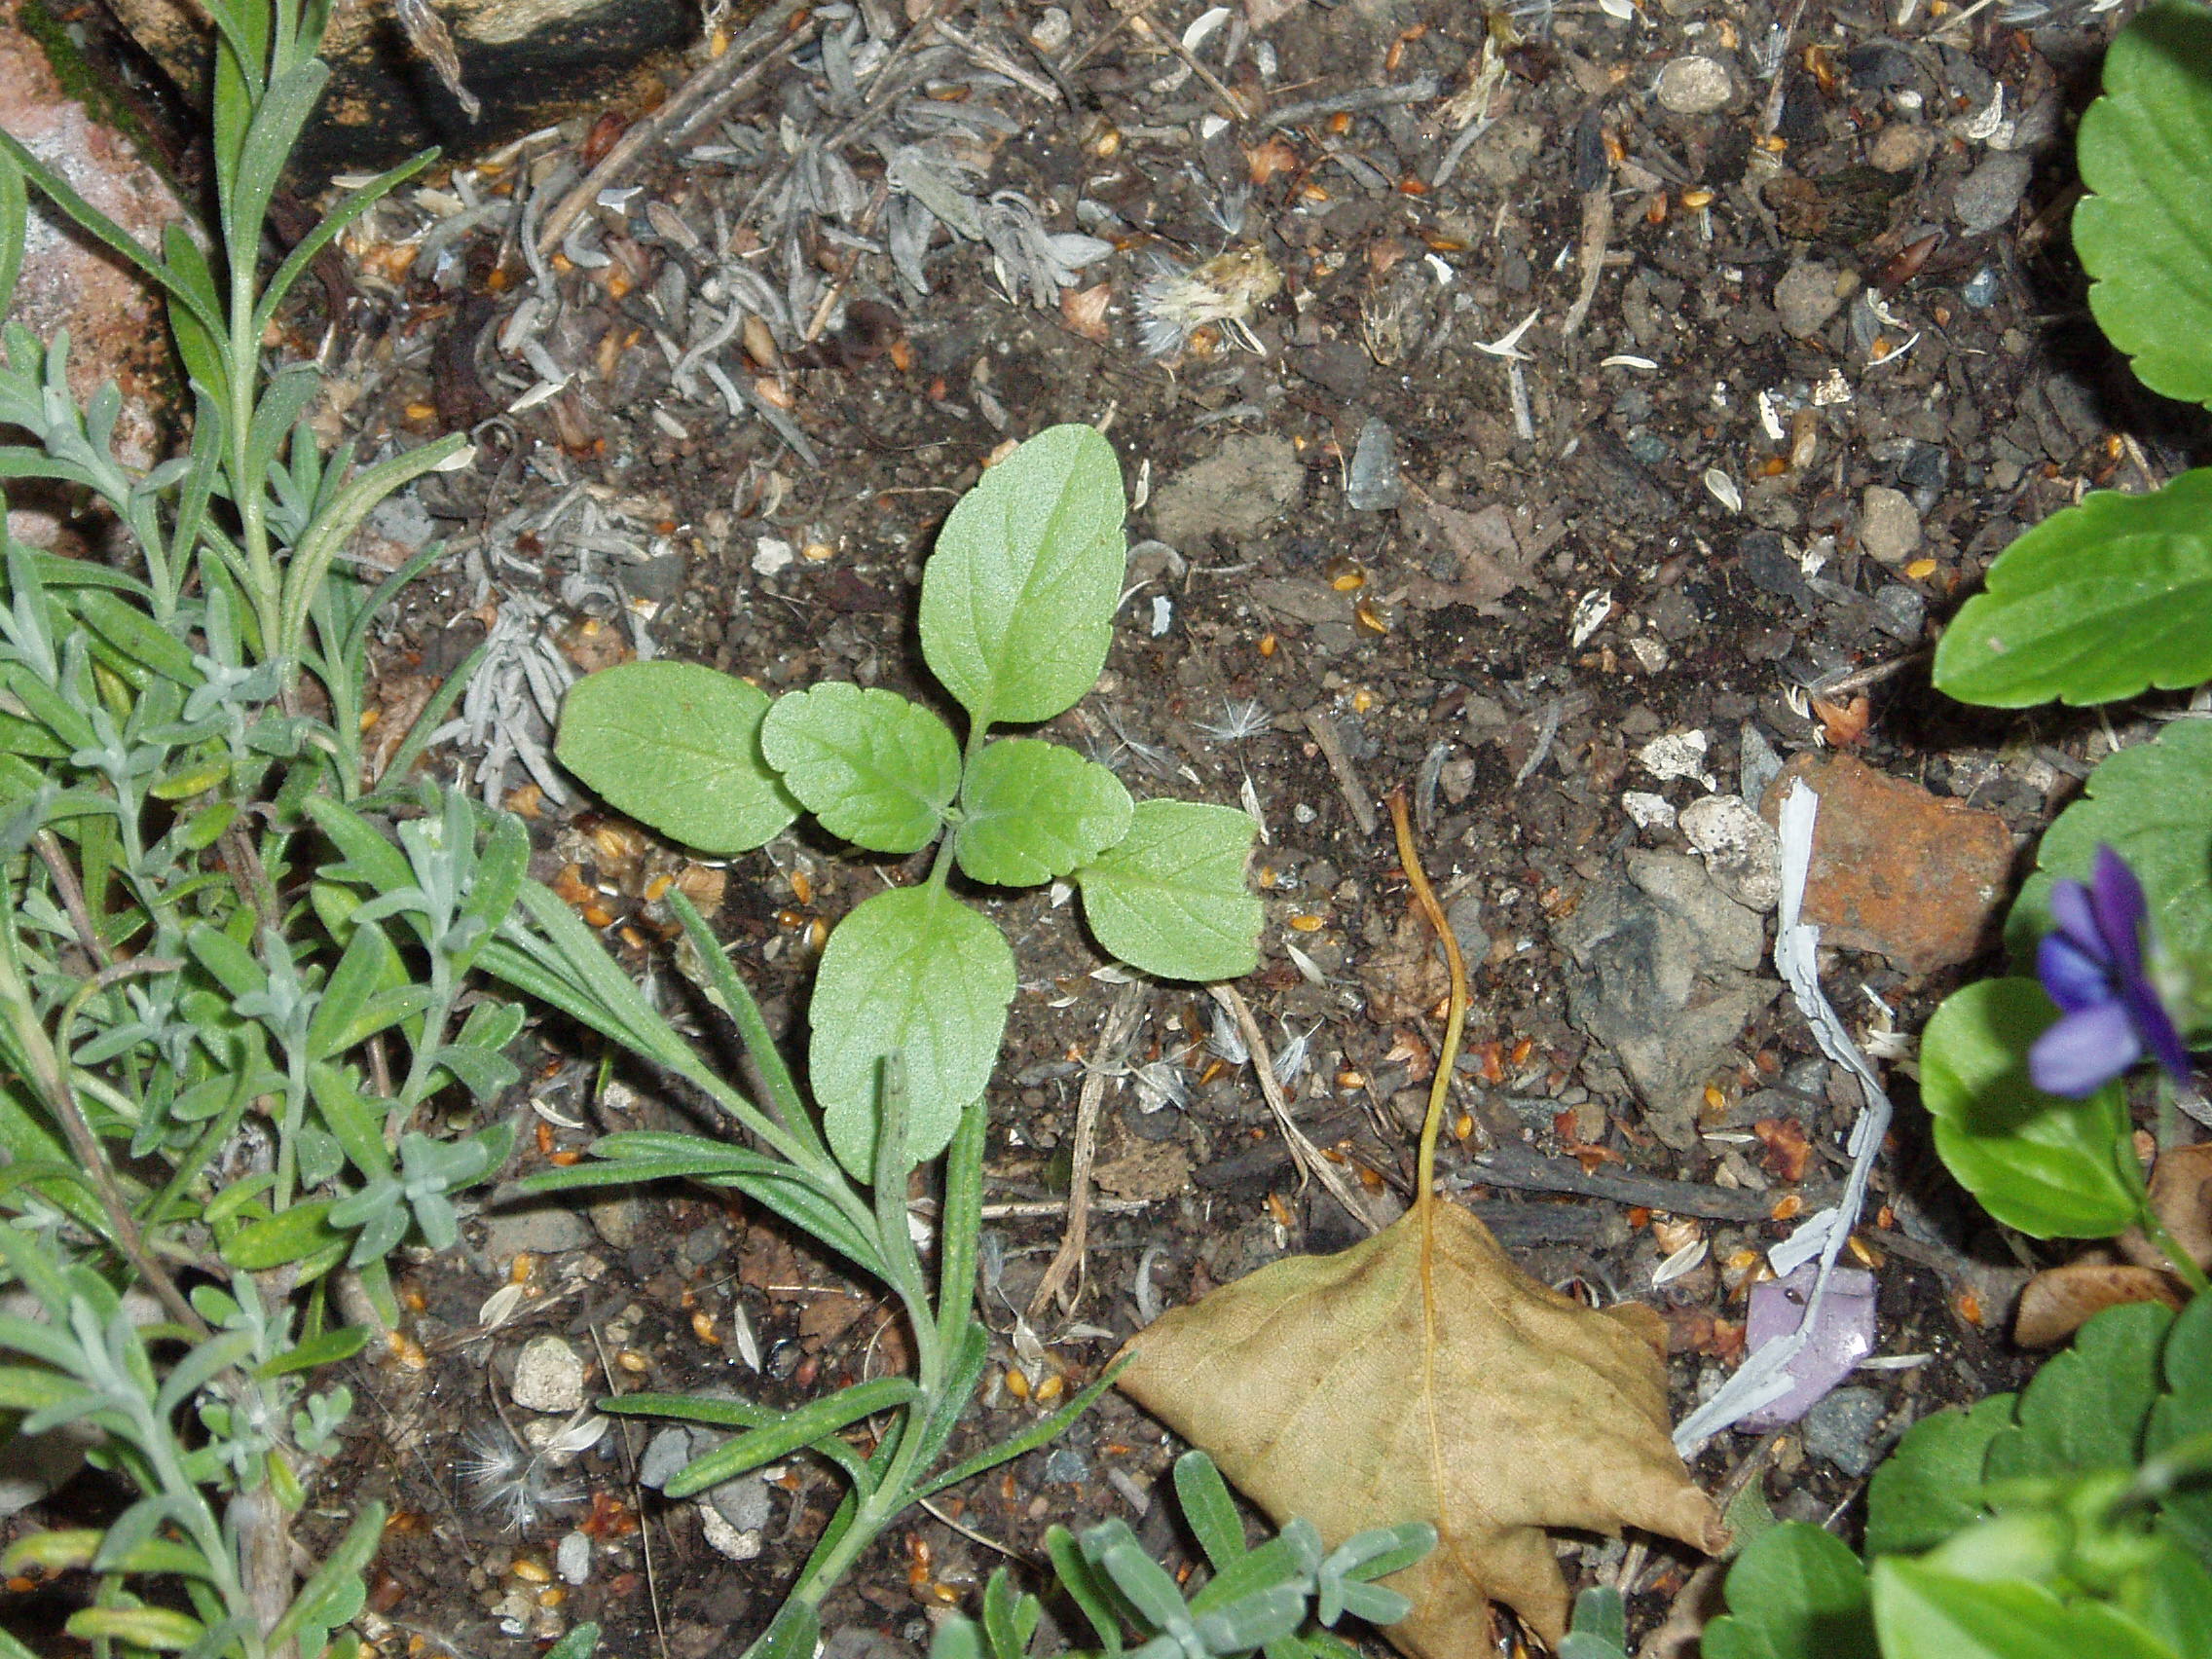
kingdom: Plantae
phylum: Tracheophyta
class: Magnoliopsida
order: Lamiales
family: Lamiaceae
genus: Salvia
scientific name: Salvia farinacea
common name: Mealy sage
